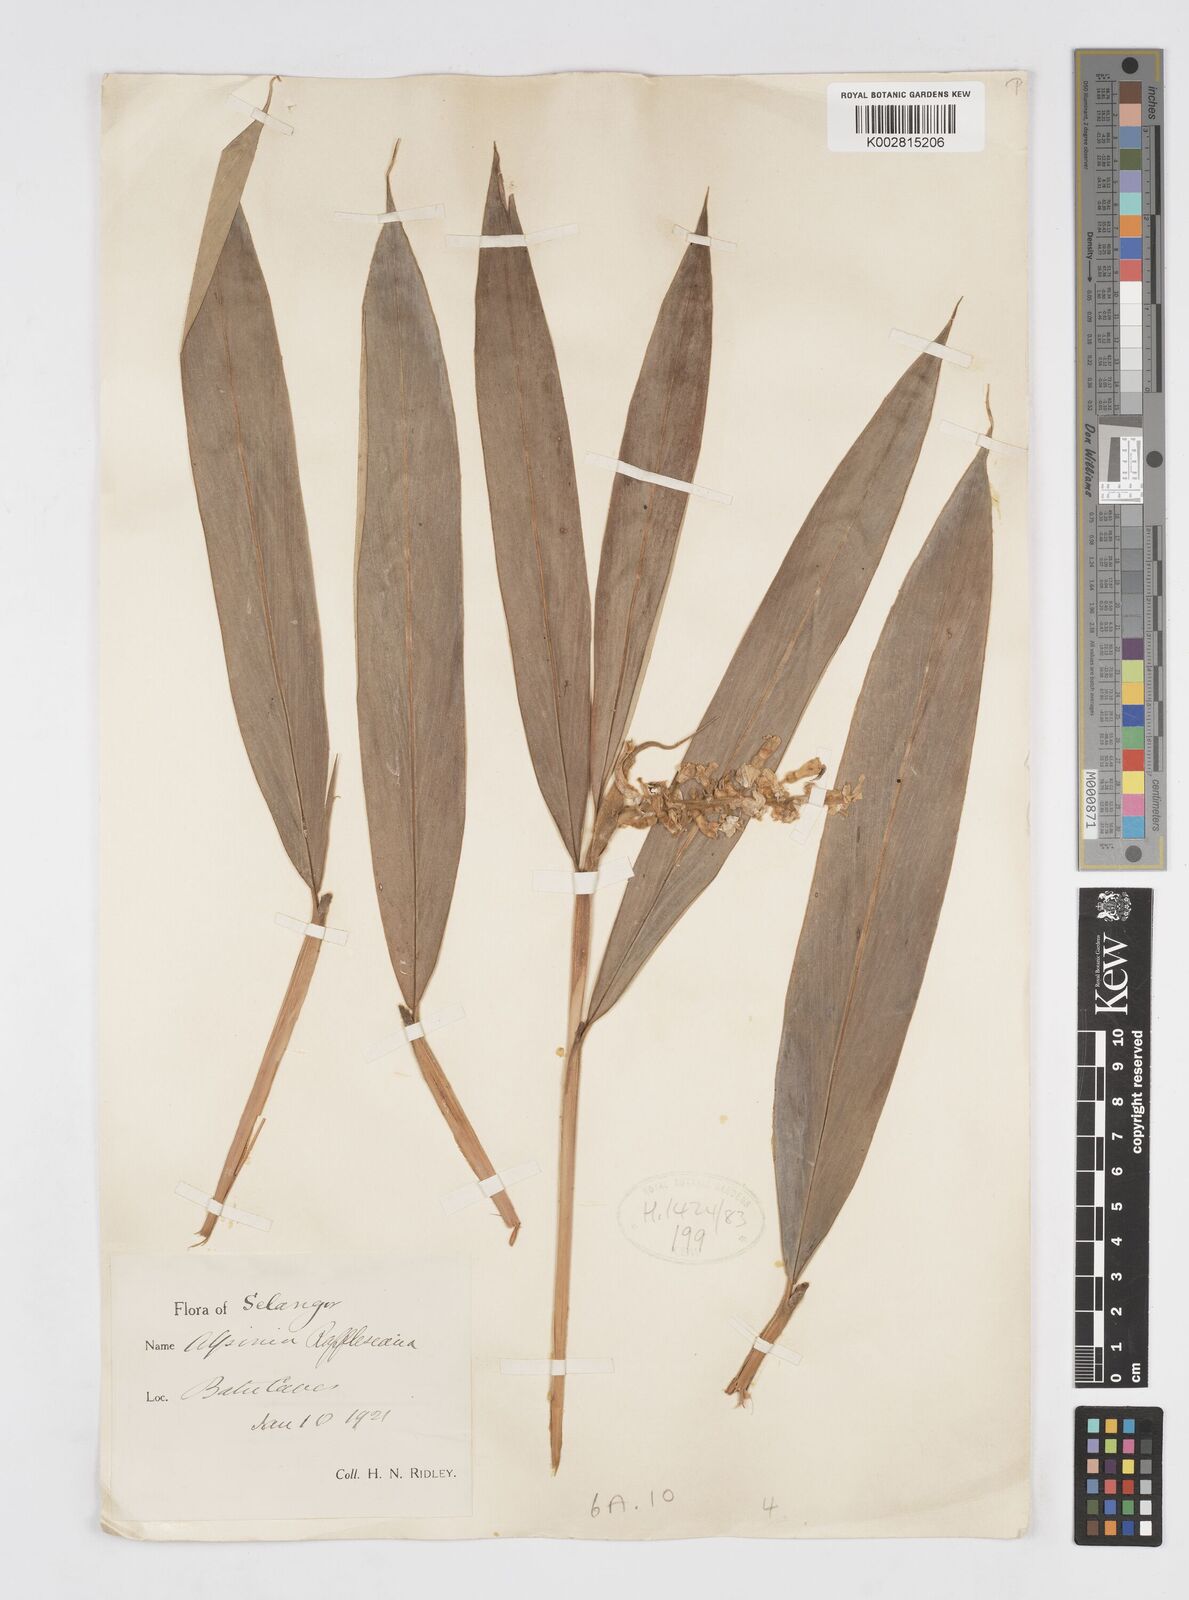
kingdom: Plantae
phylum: Tracheophyta
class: Liliopsida
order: Zingiberales
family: Zingiberaceae
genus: Alpinia
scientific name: Alpinia rafflesiana
